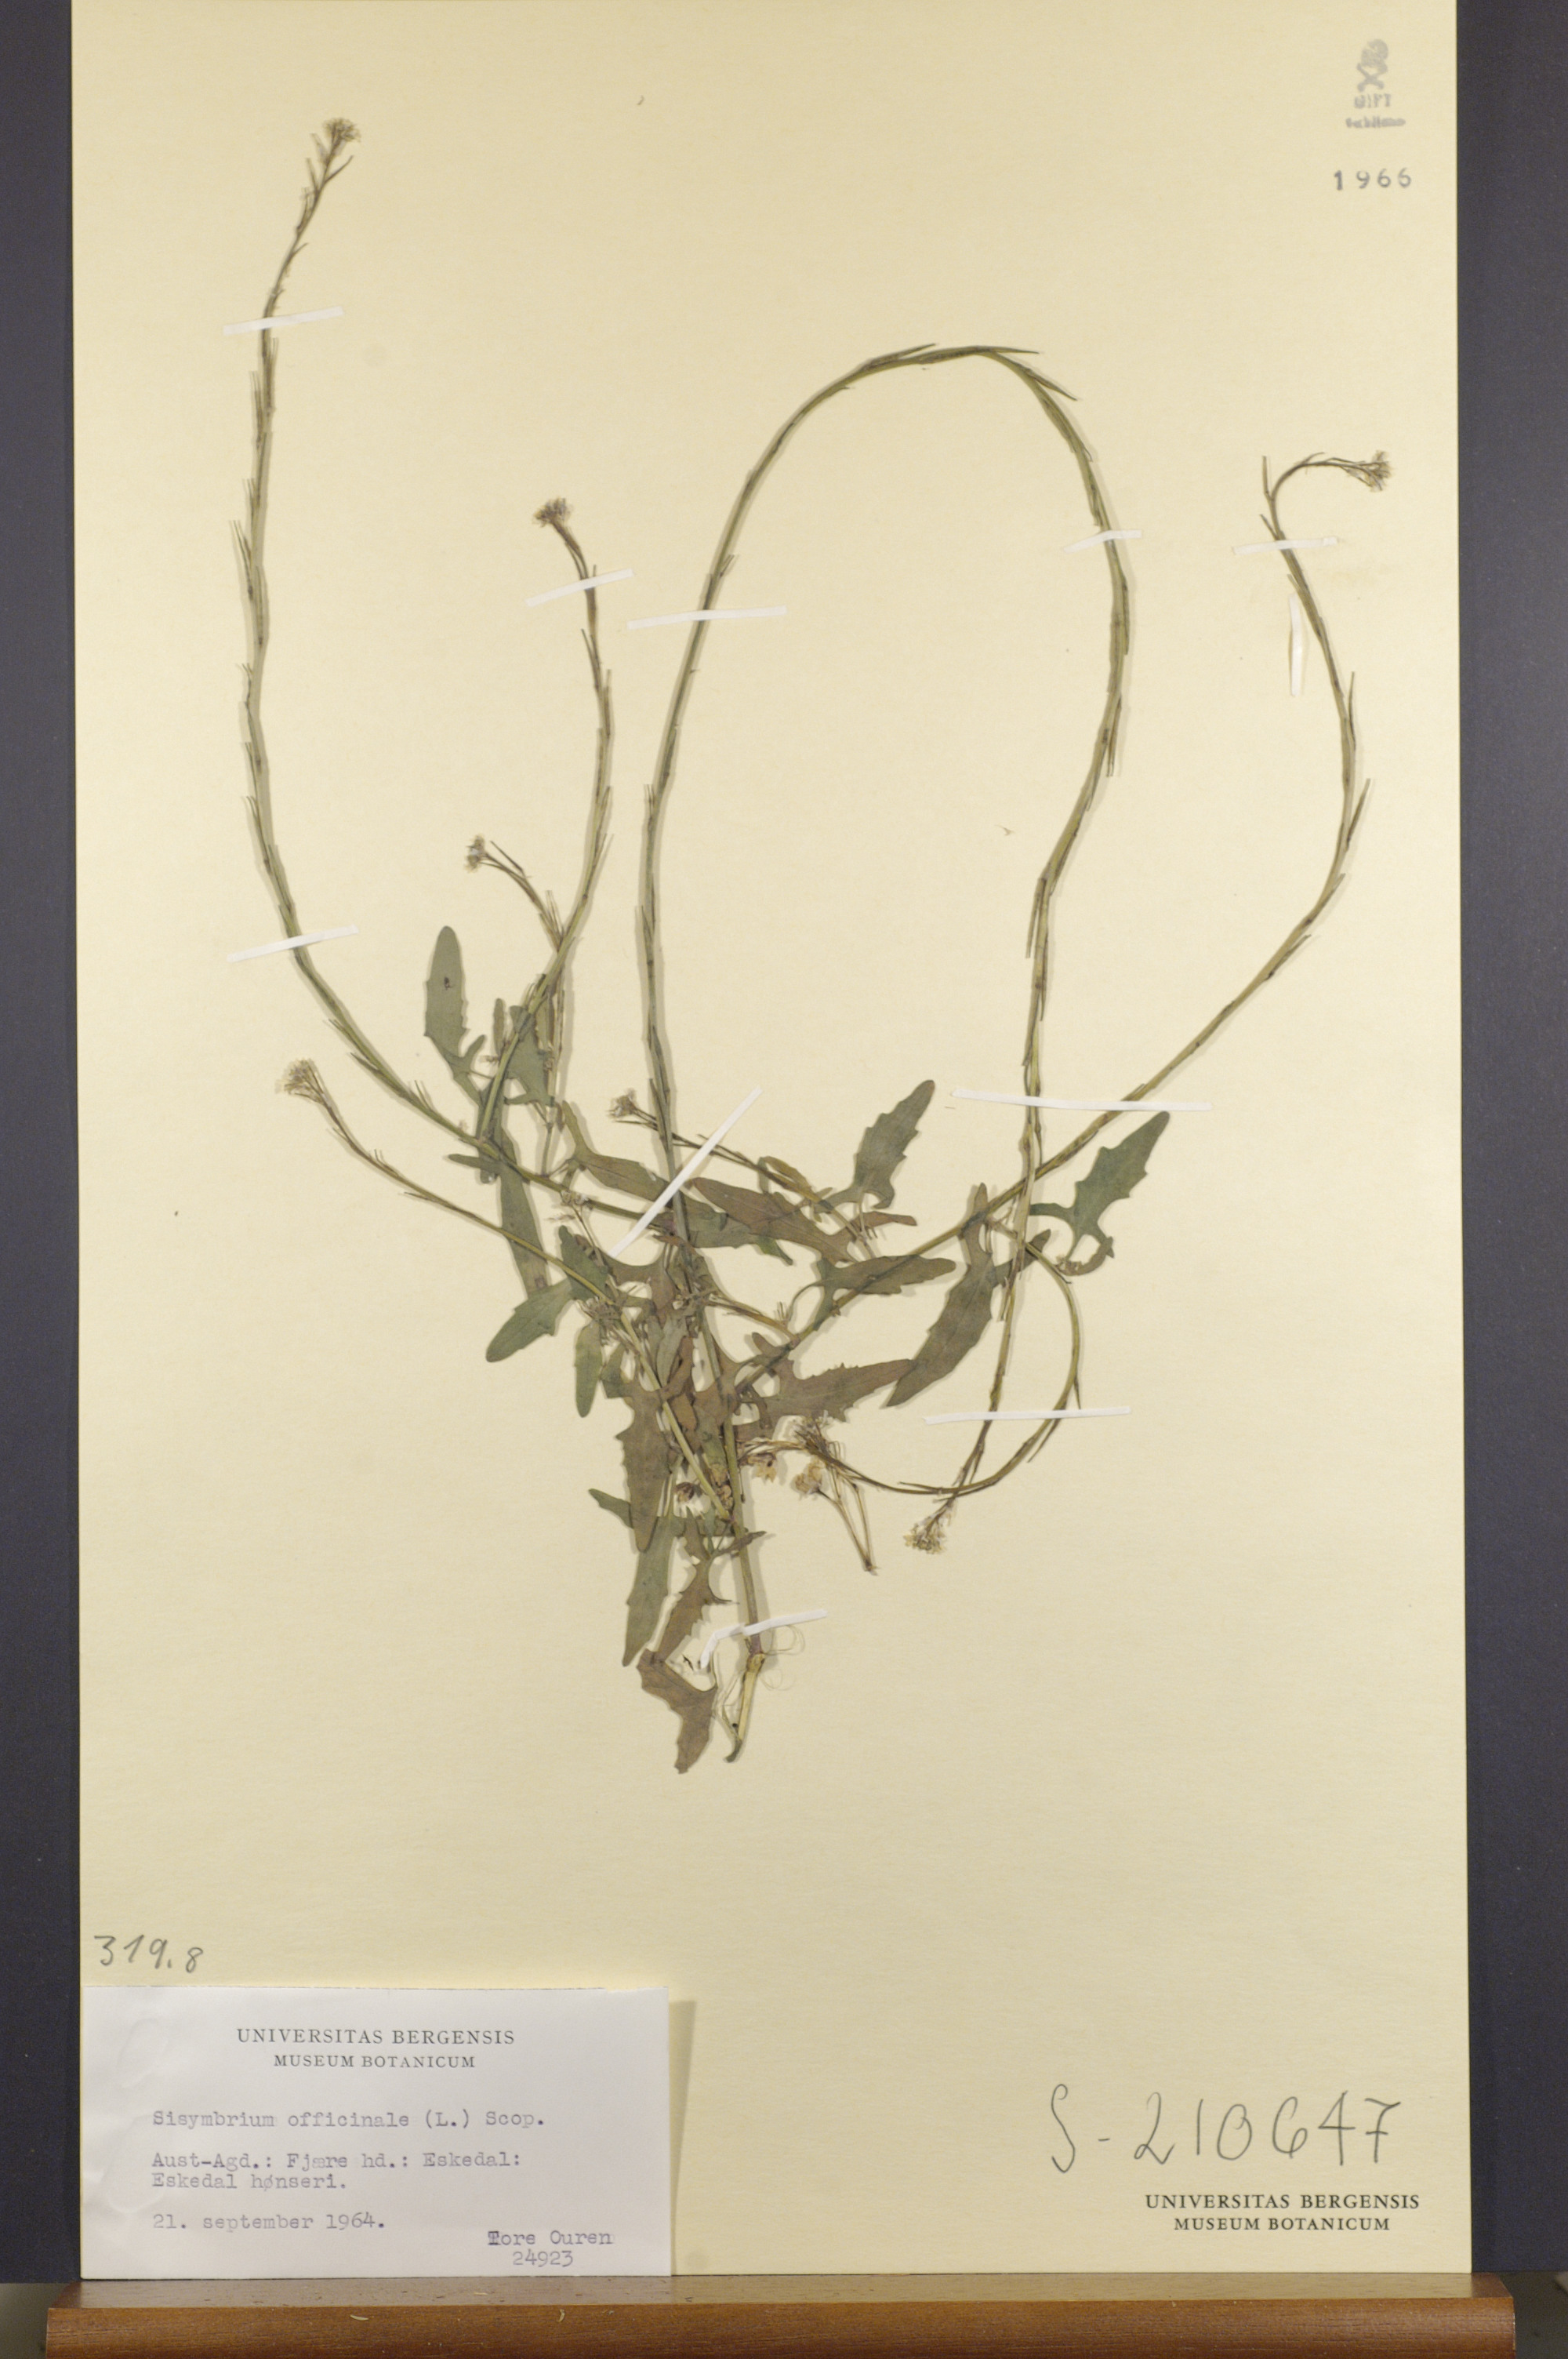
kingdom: Plantae
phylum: Tracheophyta
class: Magnoliopsida
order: Brassicales
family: Brassicaceae
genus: Sisymbrium
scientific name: Sisymbrium officinale
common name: Hedge mustard
